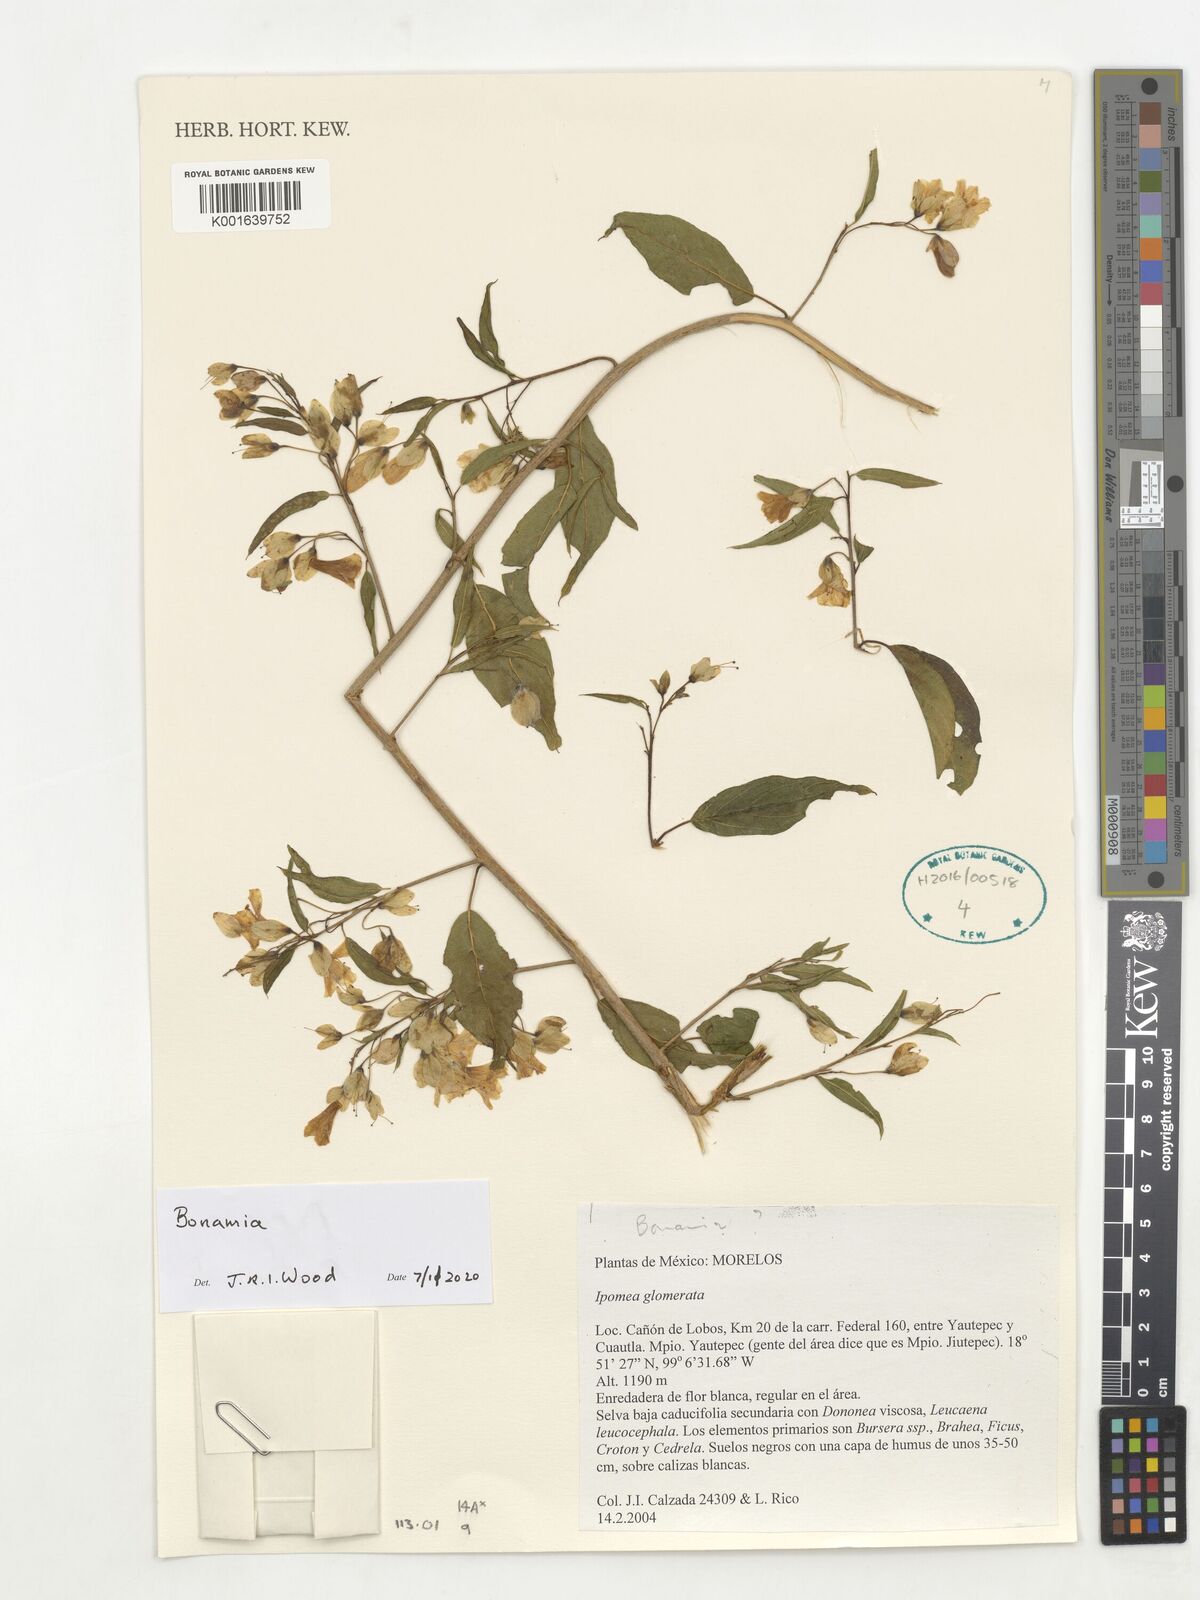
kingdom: Plantae
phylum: Tracheophyta
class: Magnoliopsida
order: Solanales
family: Convolvulaceae
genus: Bonamia
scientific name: Bonamia
